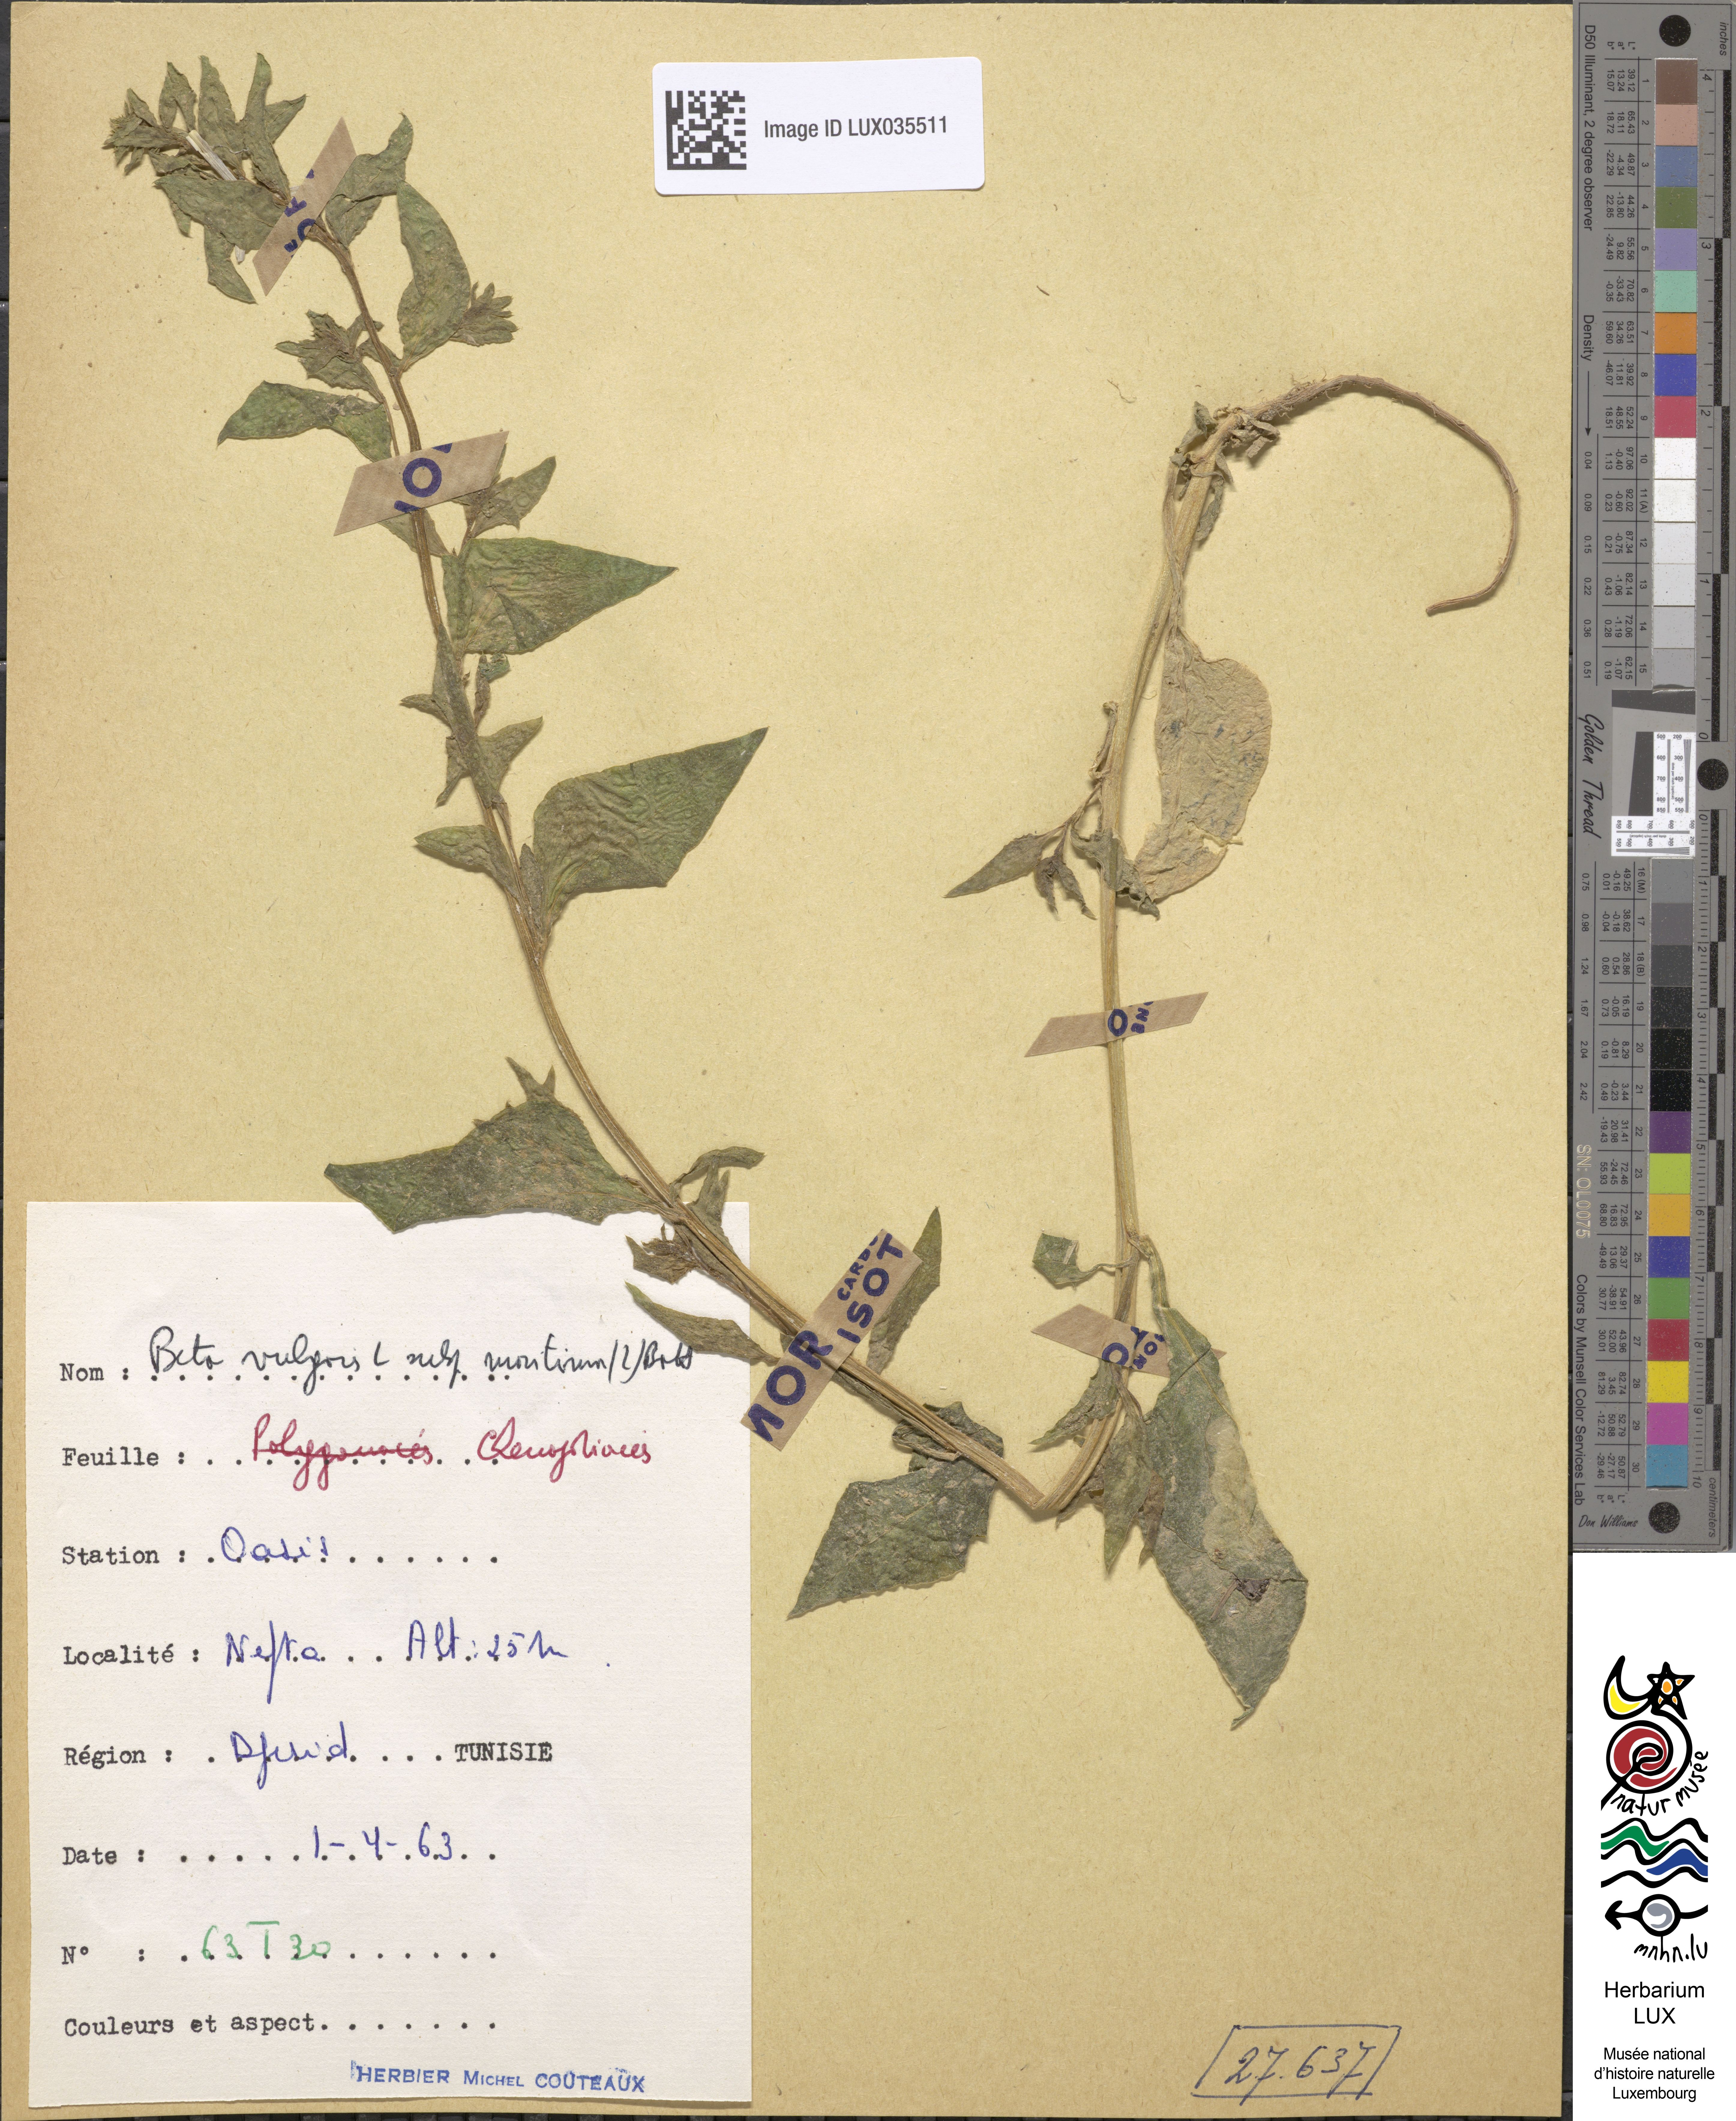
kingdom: Plantae
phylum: Tracheophyta
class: Magnoliopsida
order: Caryophyllales
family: Amaranthaceae
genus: Beta
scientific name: Beta maritima
